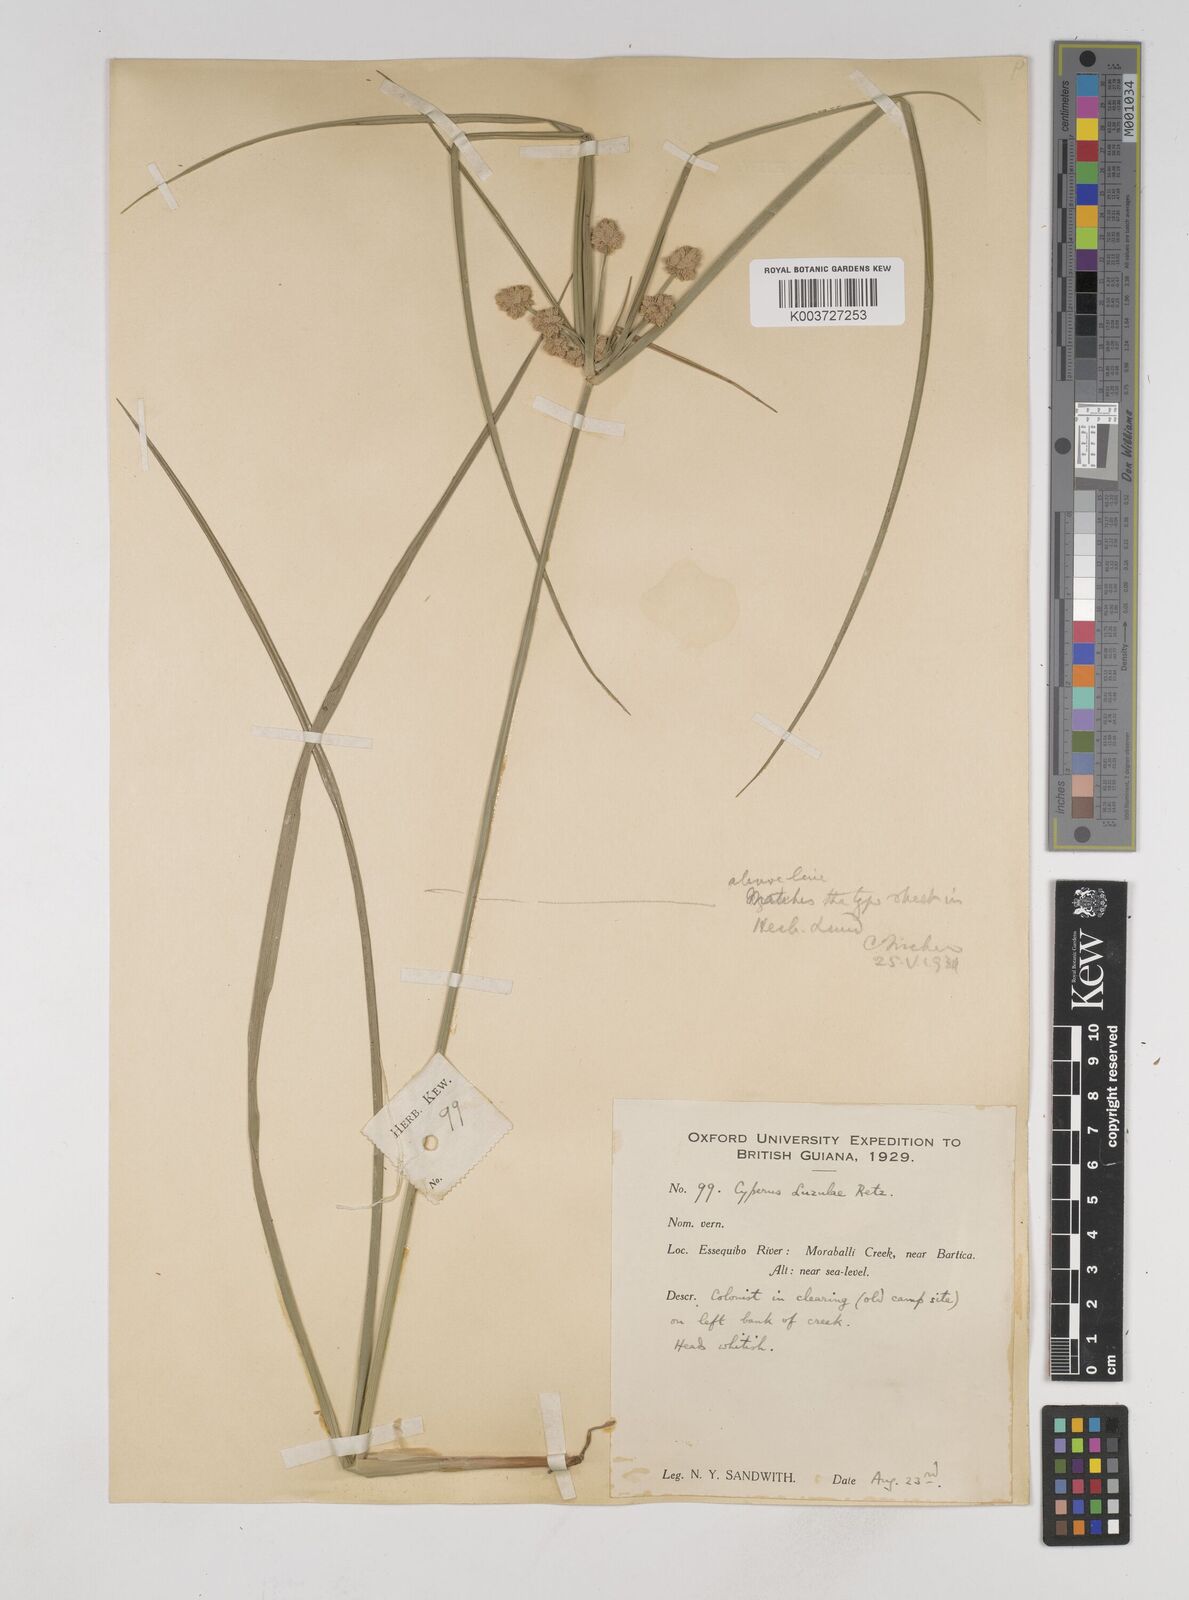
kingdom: Plantae
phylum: Tracheophyta
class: Liliopsida
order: Poales
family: Cyperaceae
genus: Cyperus
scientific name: Cyperus luzulae
